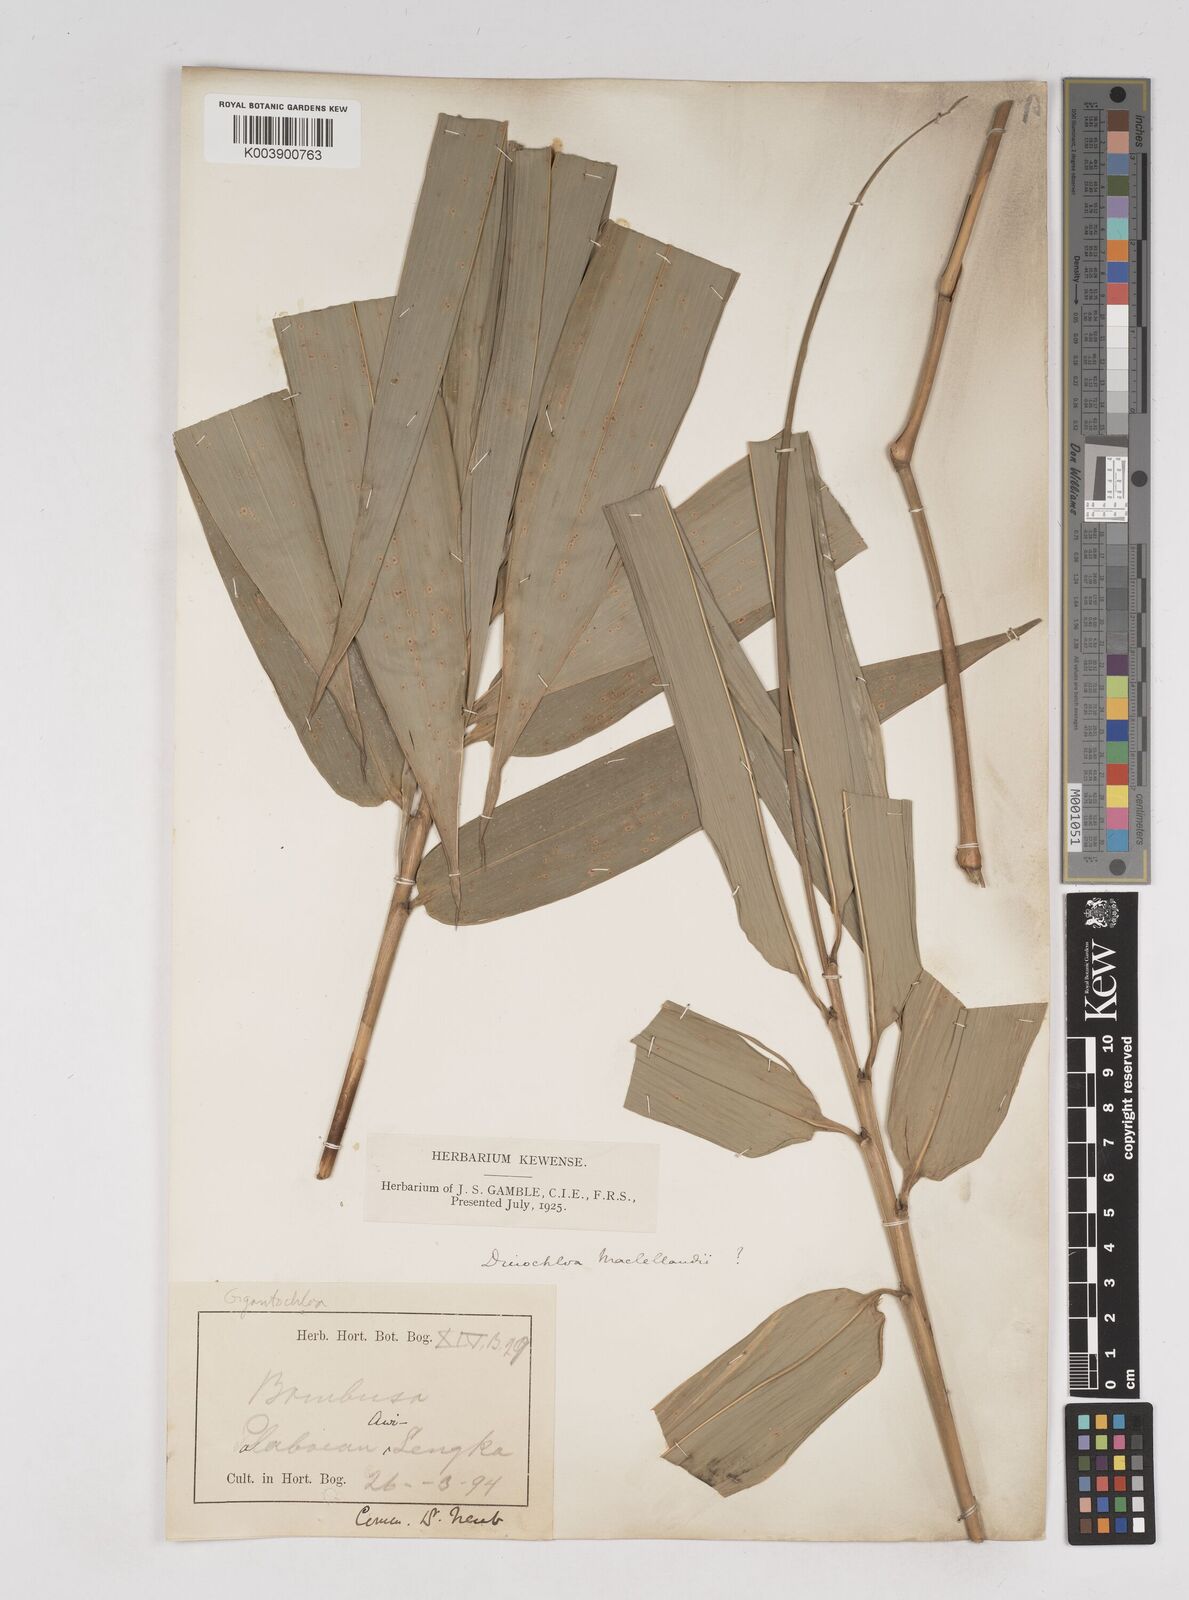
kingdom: Plantae
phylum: Tracheophyta
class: Liliopsida
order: Poales
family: Poaceae
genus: Gigantochloa
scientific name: Gigantochloa
